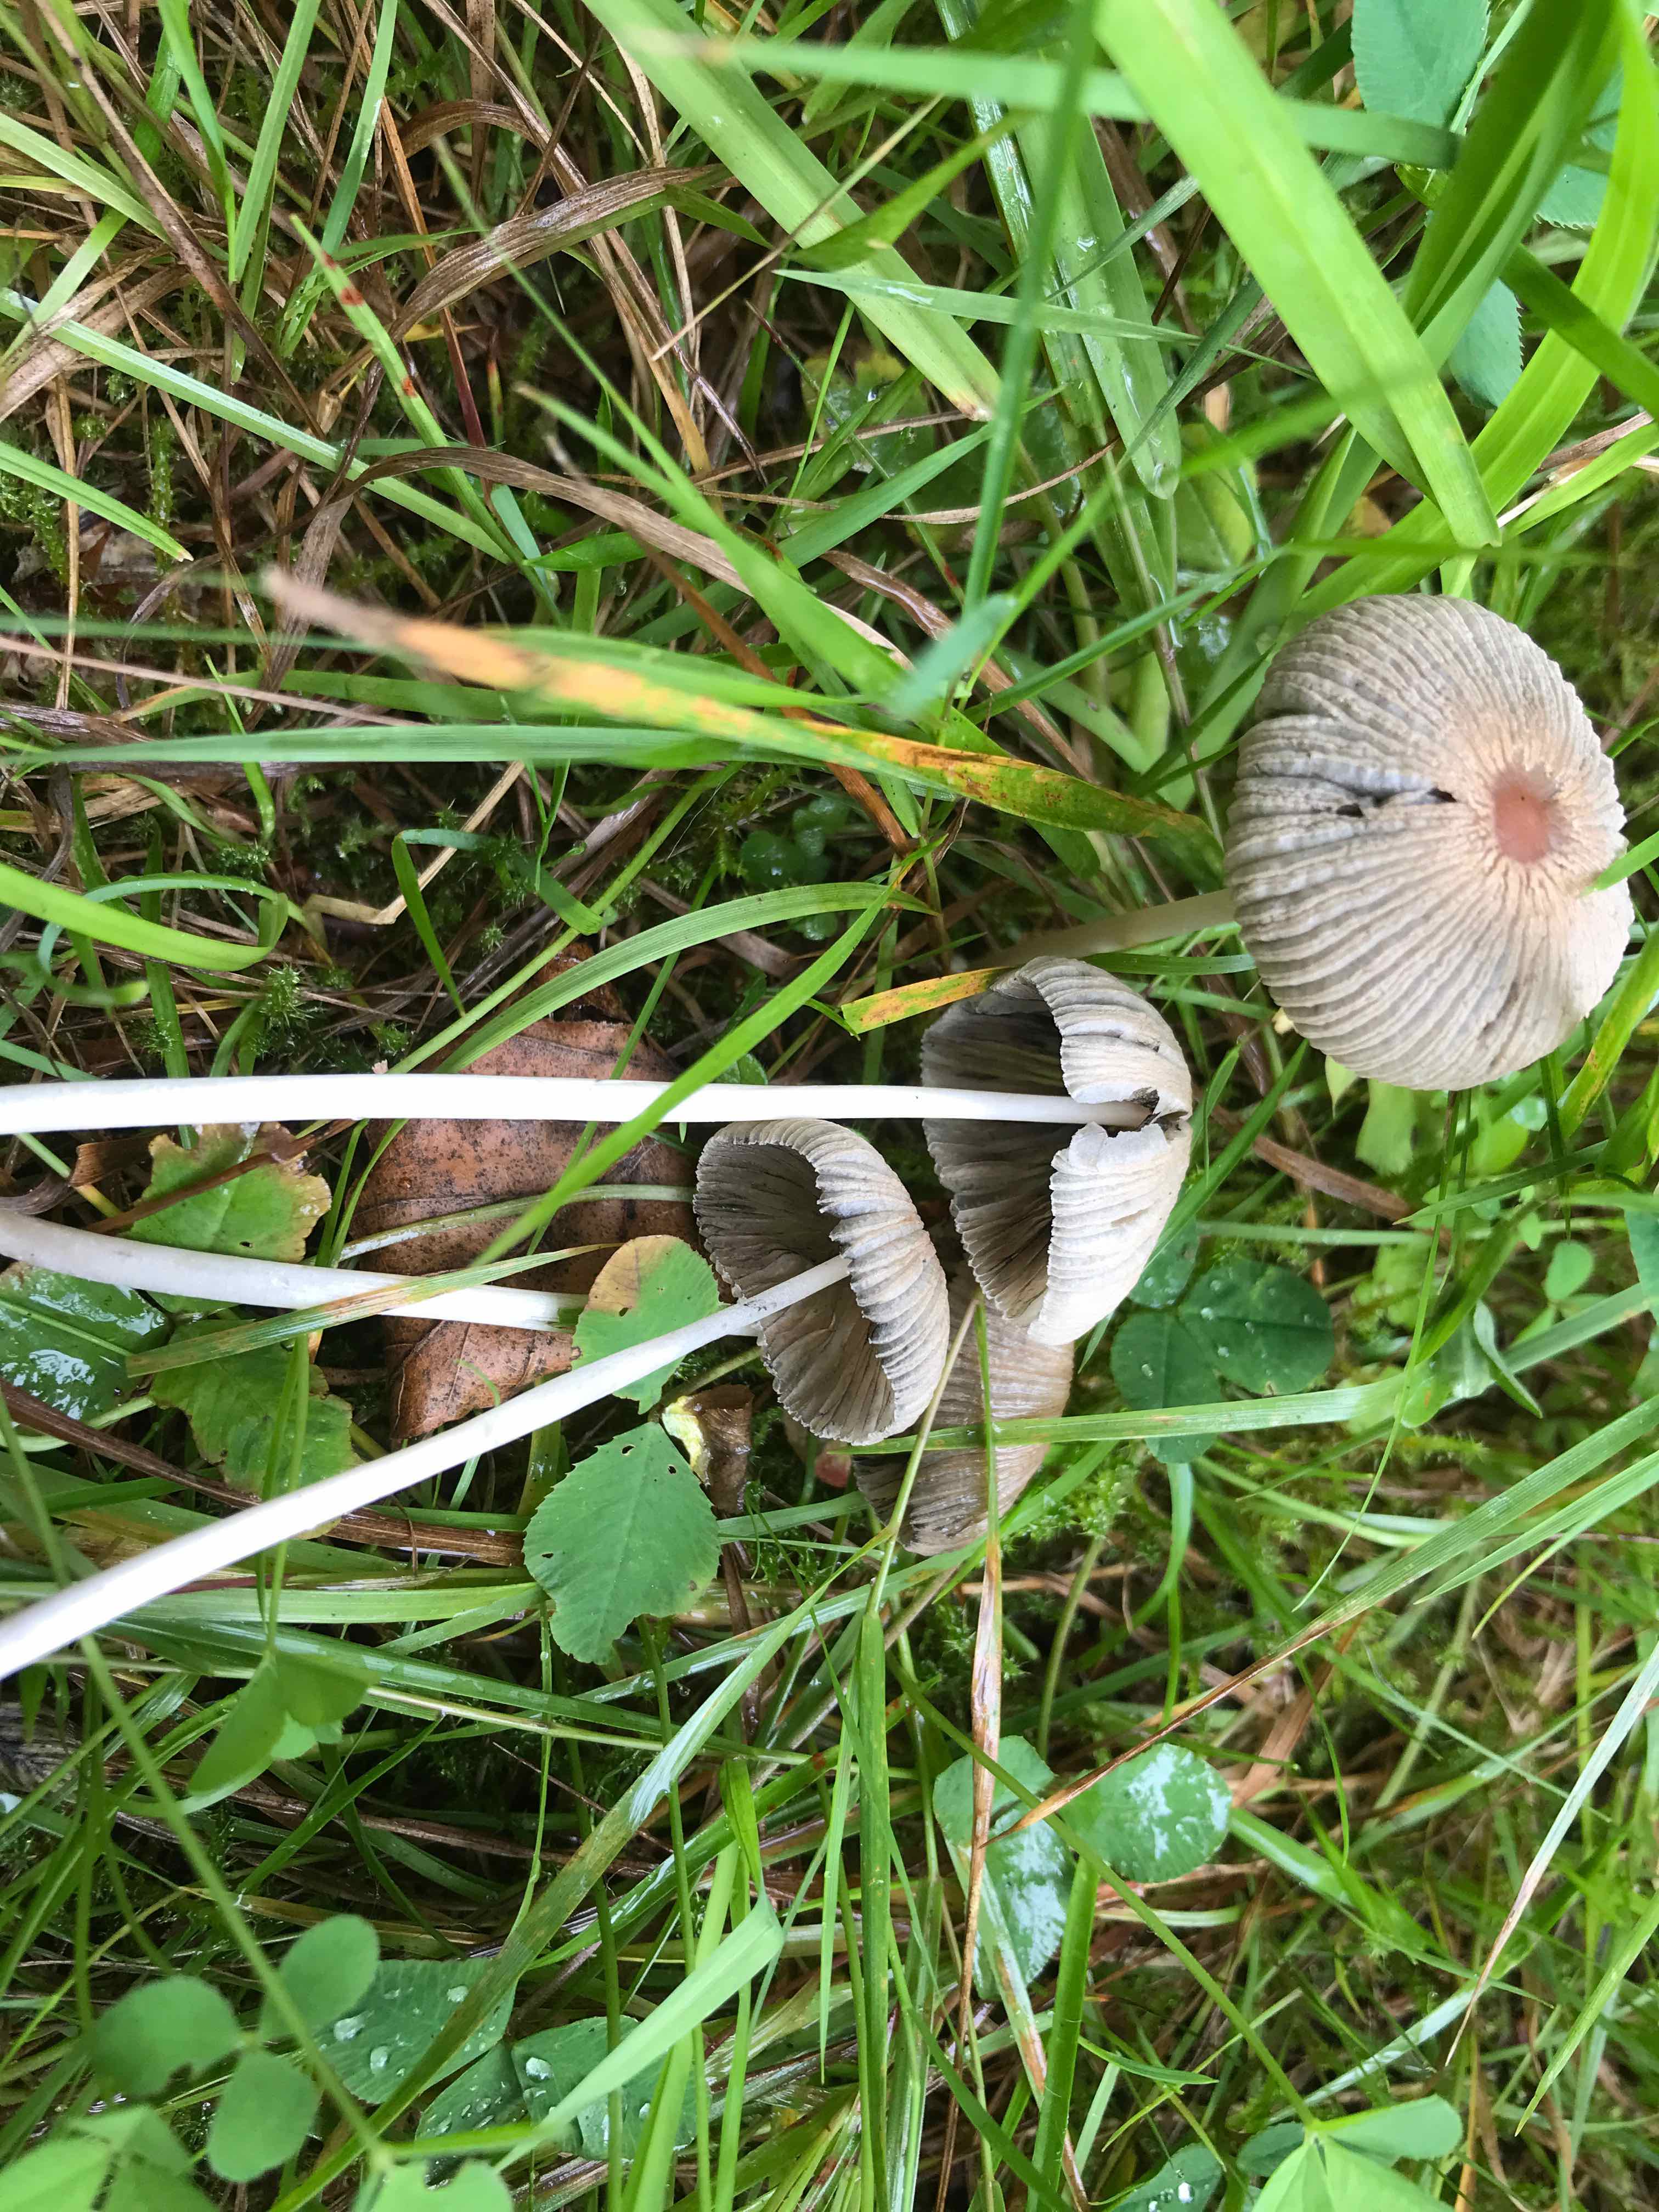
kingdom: Fungi
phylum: Basidiomycota
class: Agaricomycetes
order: Agaricales
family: Psathyrellaceae
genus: Parasola
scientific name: Parasola
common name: hjulhat
